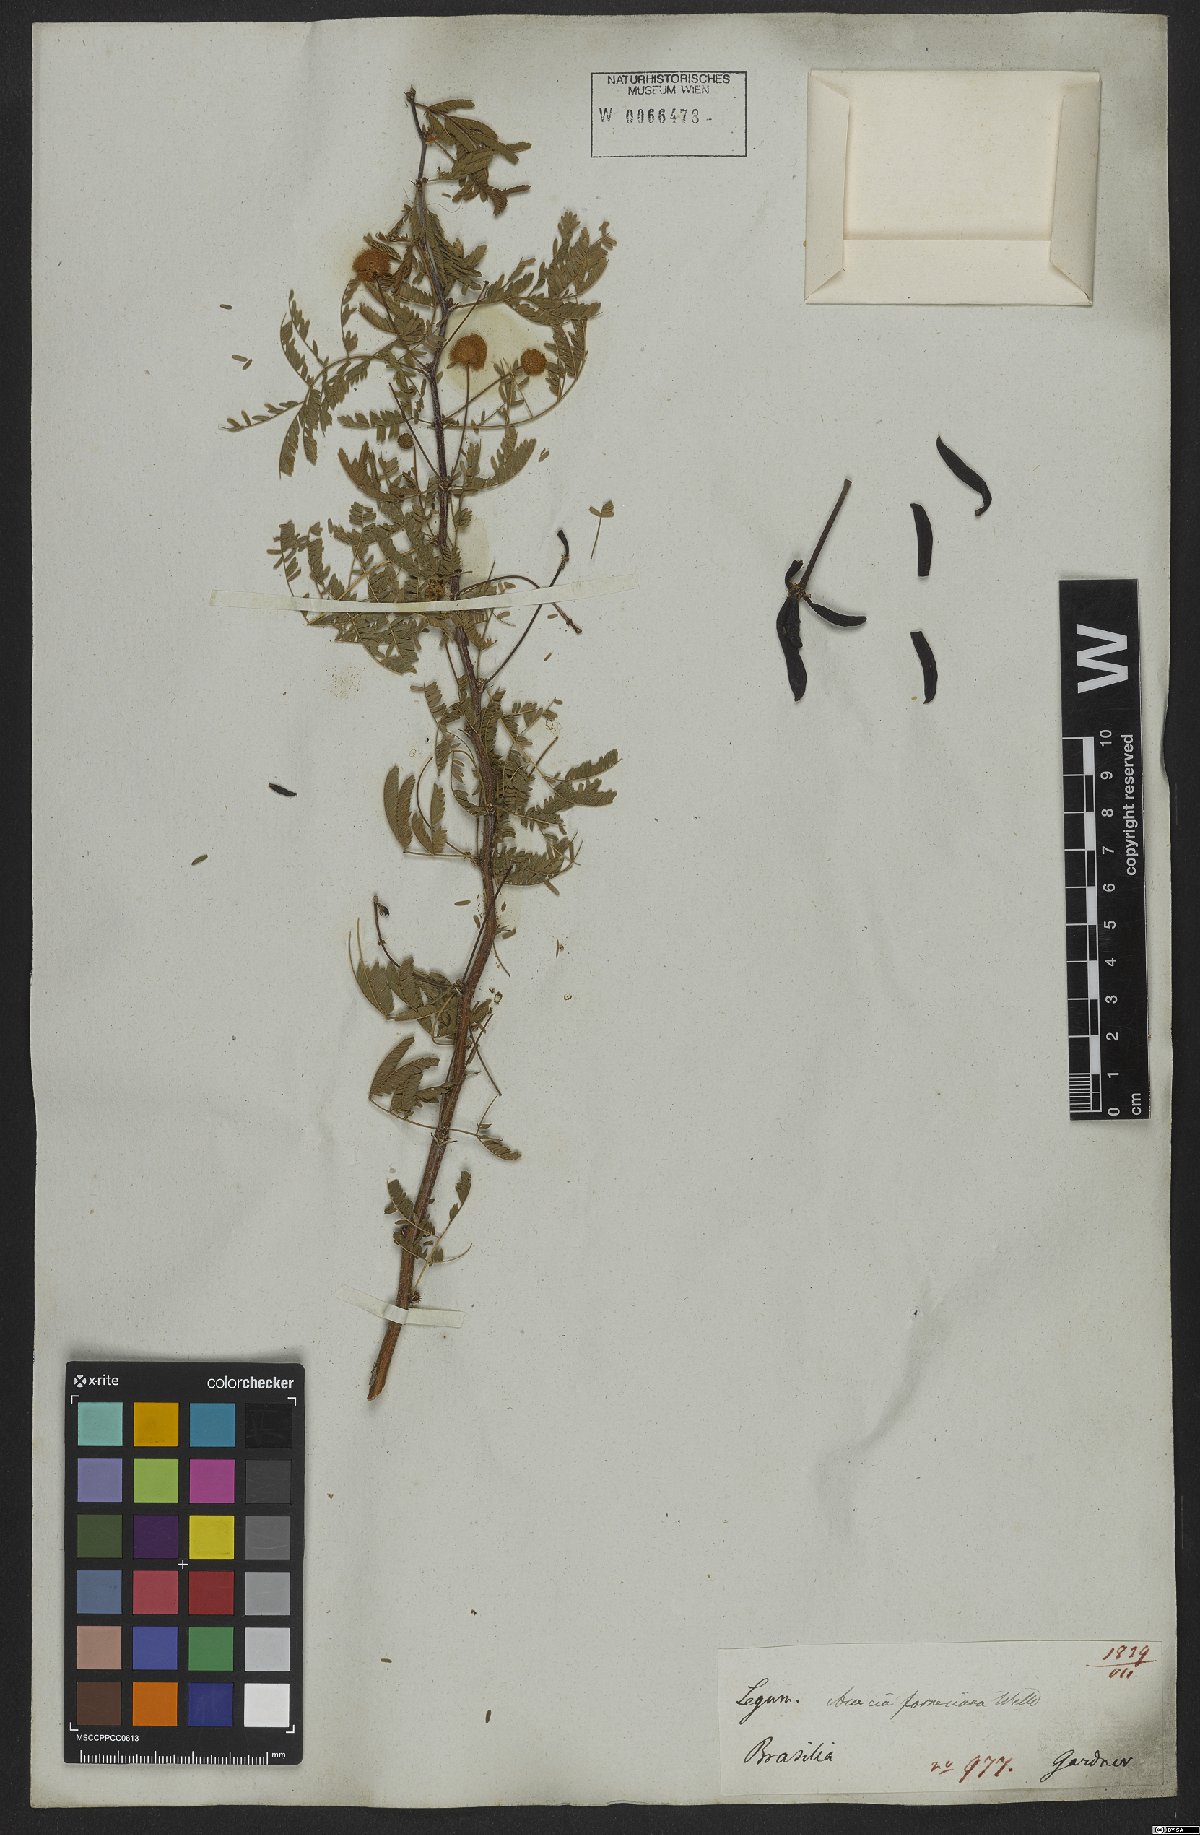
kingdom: Plantae
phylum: Tracheophyta
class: Magnoliopsida
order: Fabales
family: Fabaceae
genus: Vachellia
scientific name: Vachellia farnesiana
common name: Sweet acacia
